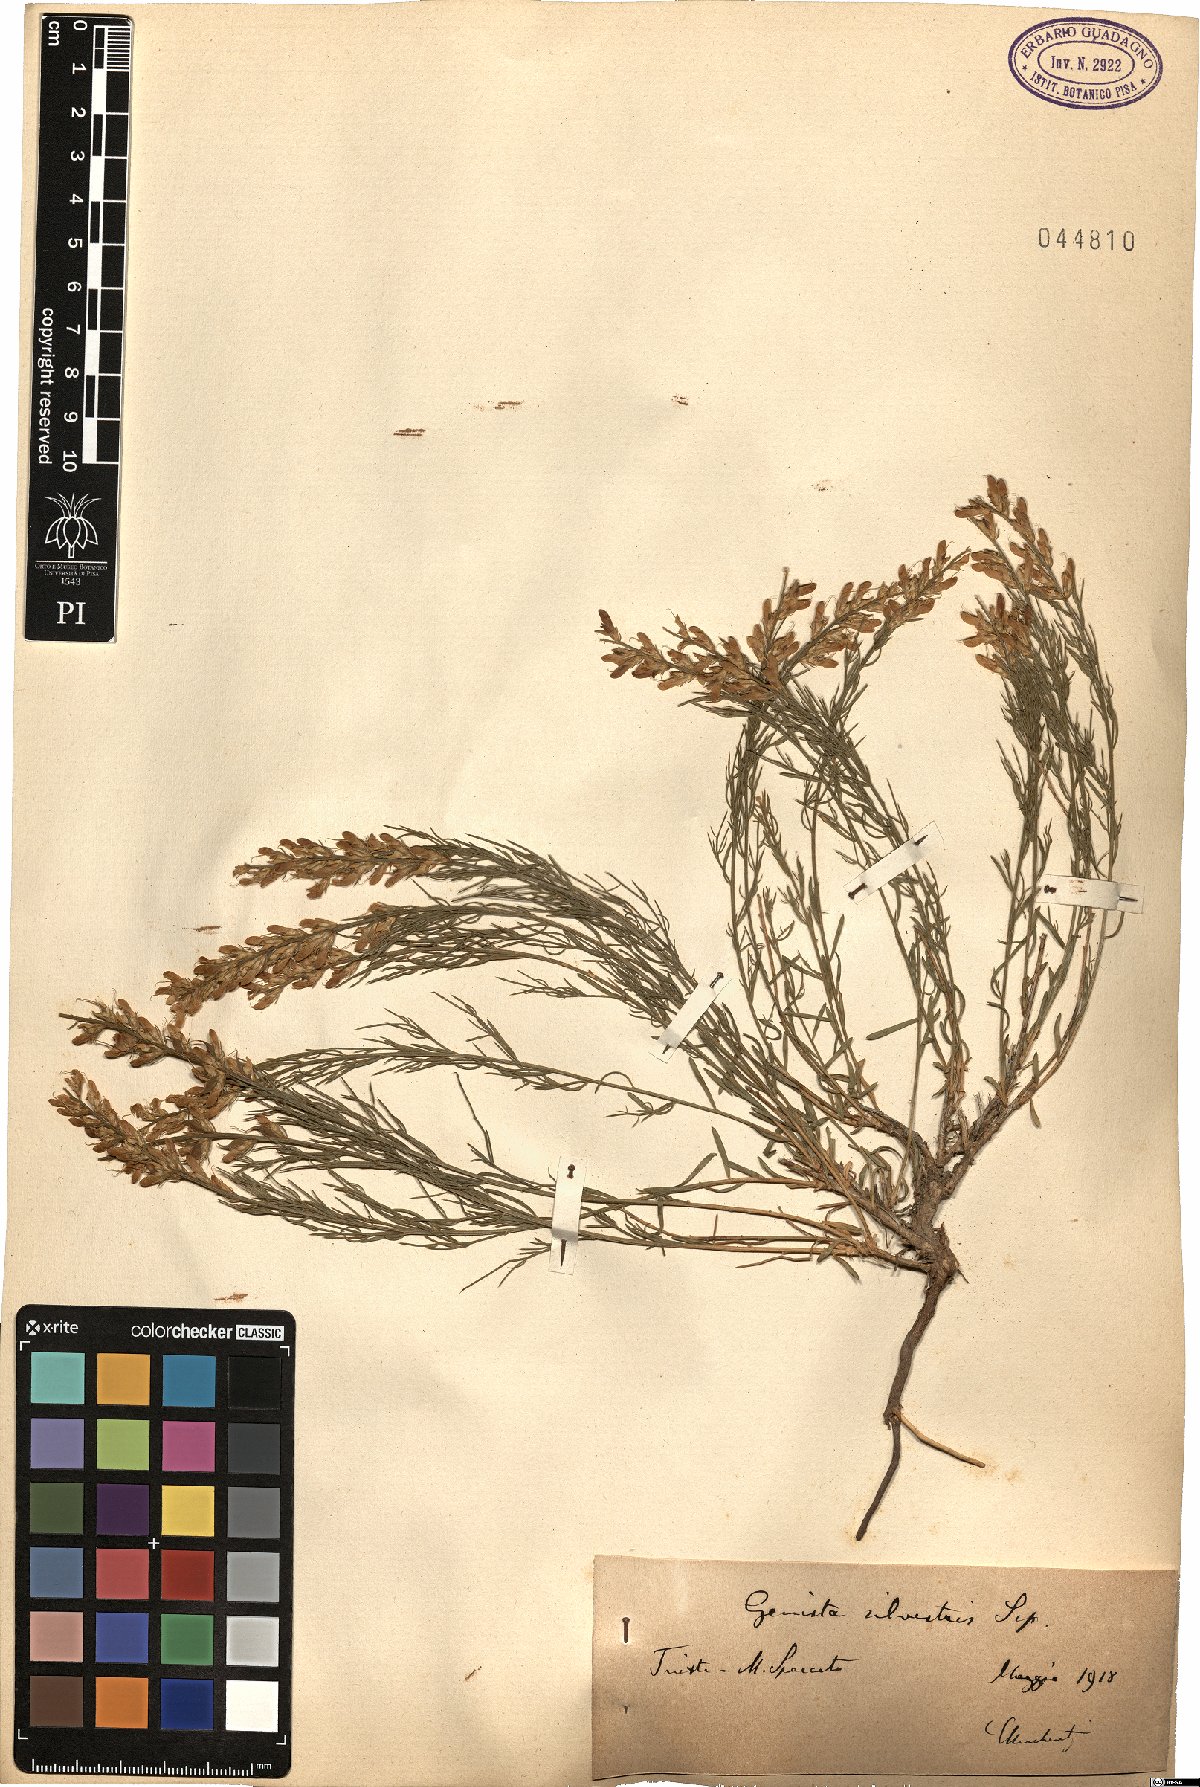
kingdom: Plantae
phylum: Tracheophyta
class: Magnoliopsida
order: Fabales
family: Fabaceae
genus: Genista
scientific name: Genista sylvestris
